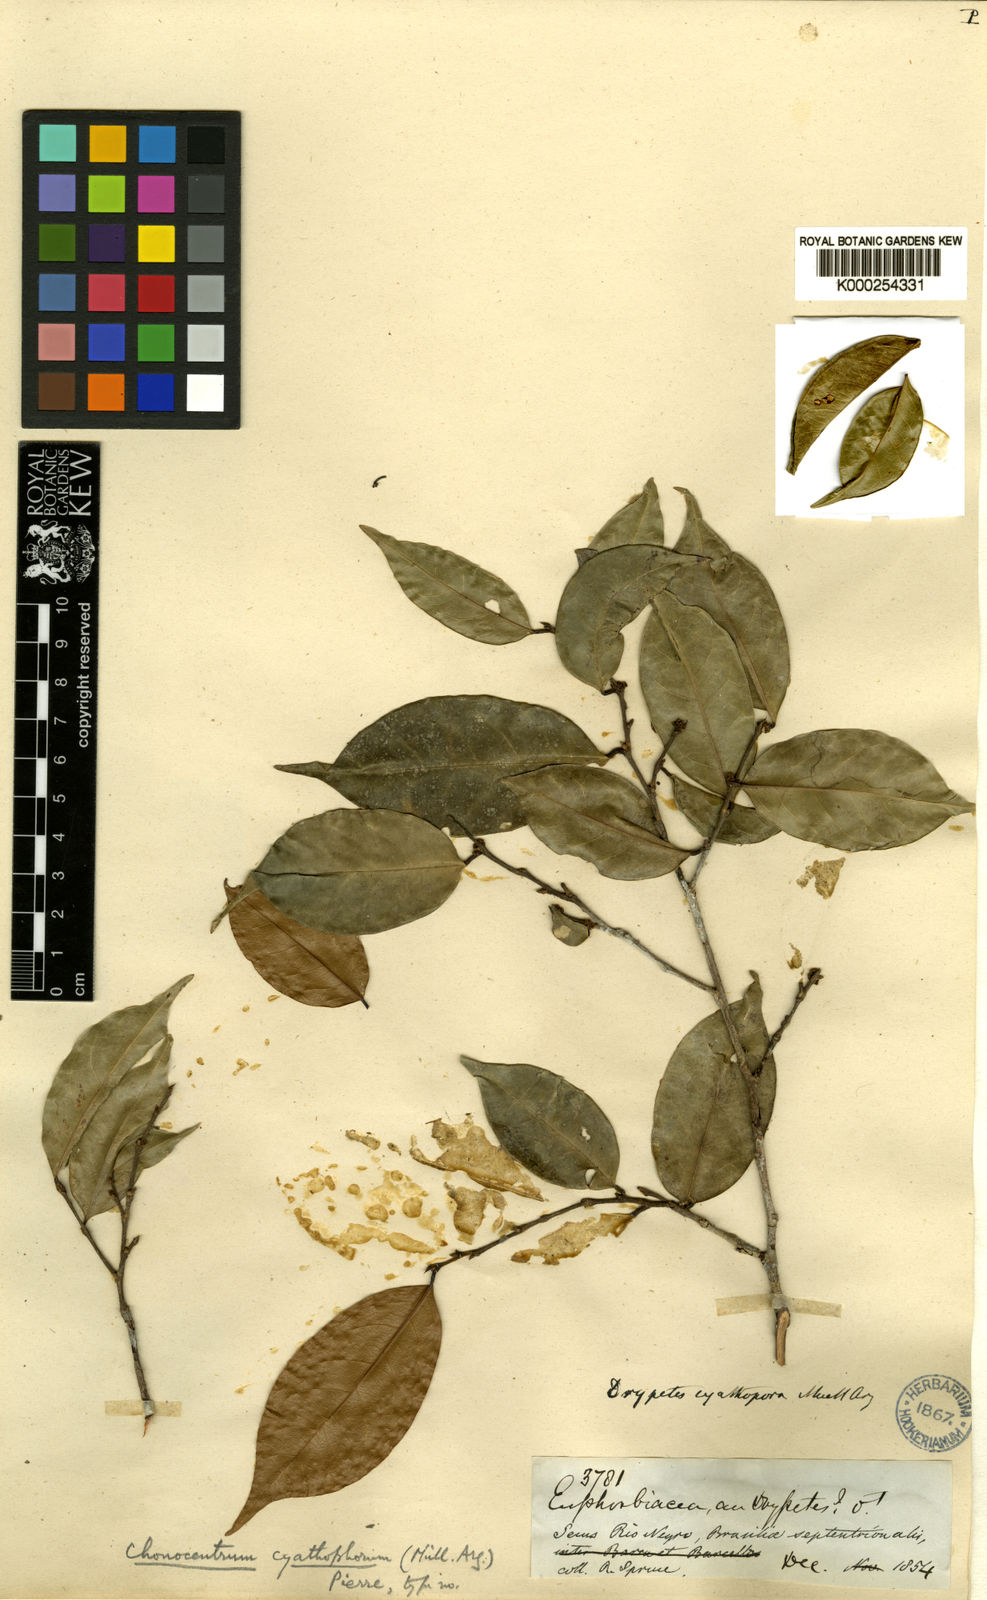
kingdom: Plantae
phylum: Tracheophyta
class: Magnoliopsida
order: Malpighiales
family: Phyllanthaceae
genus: Chonocentrum
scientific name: Chonocentrum
